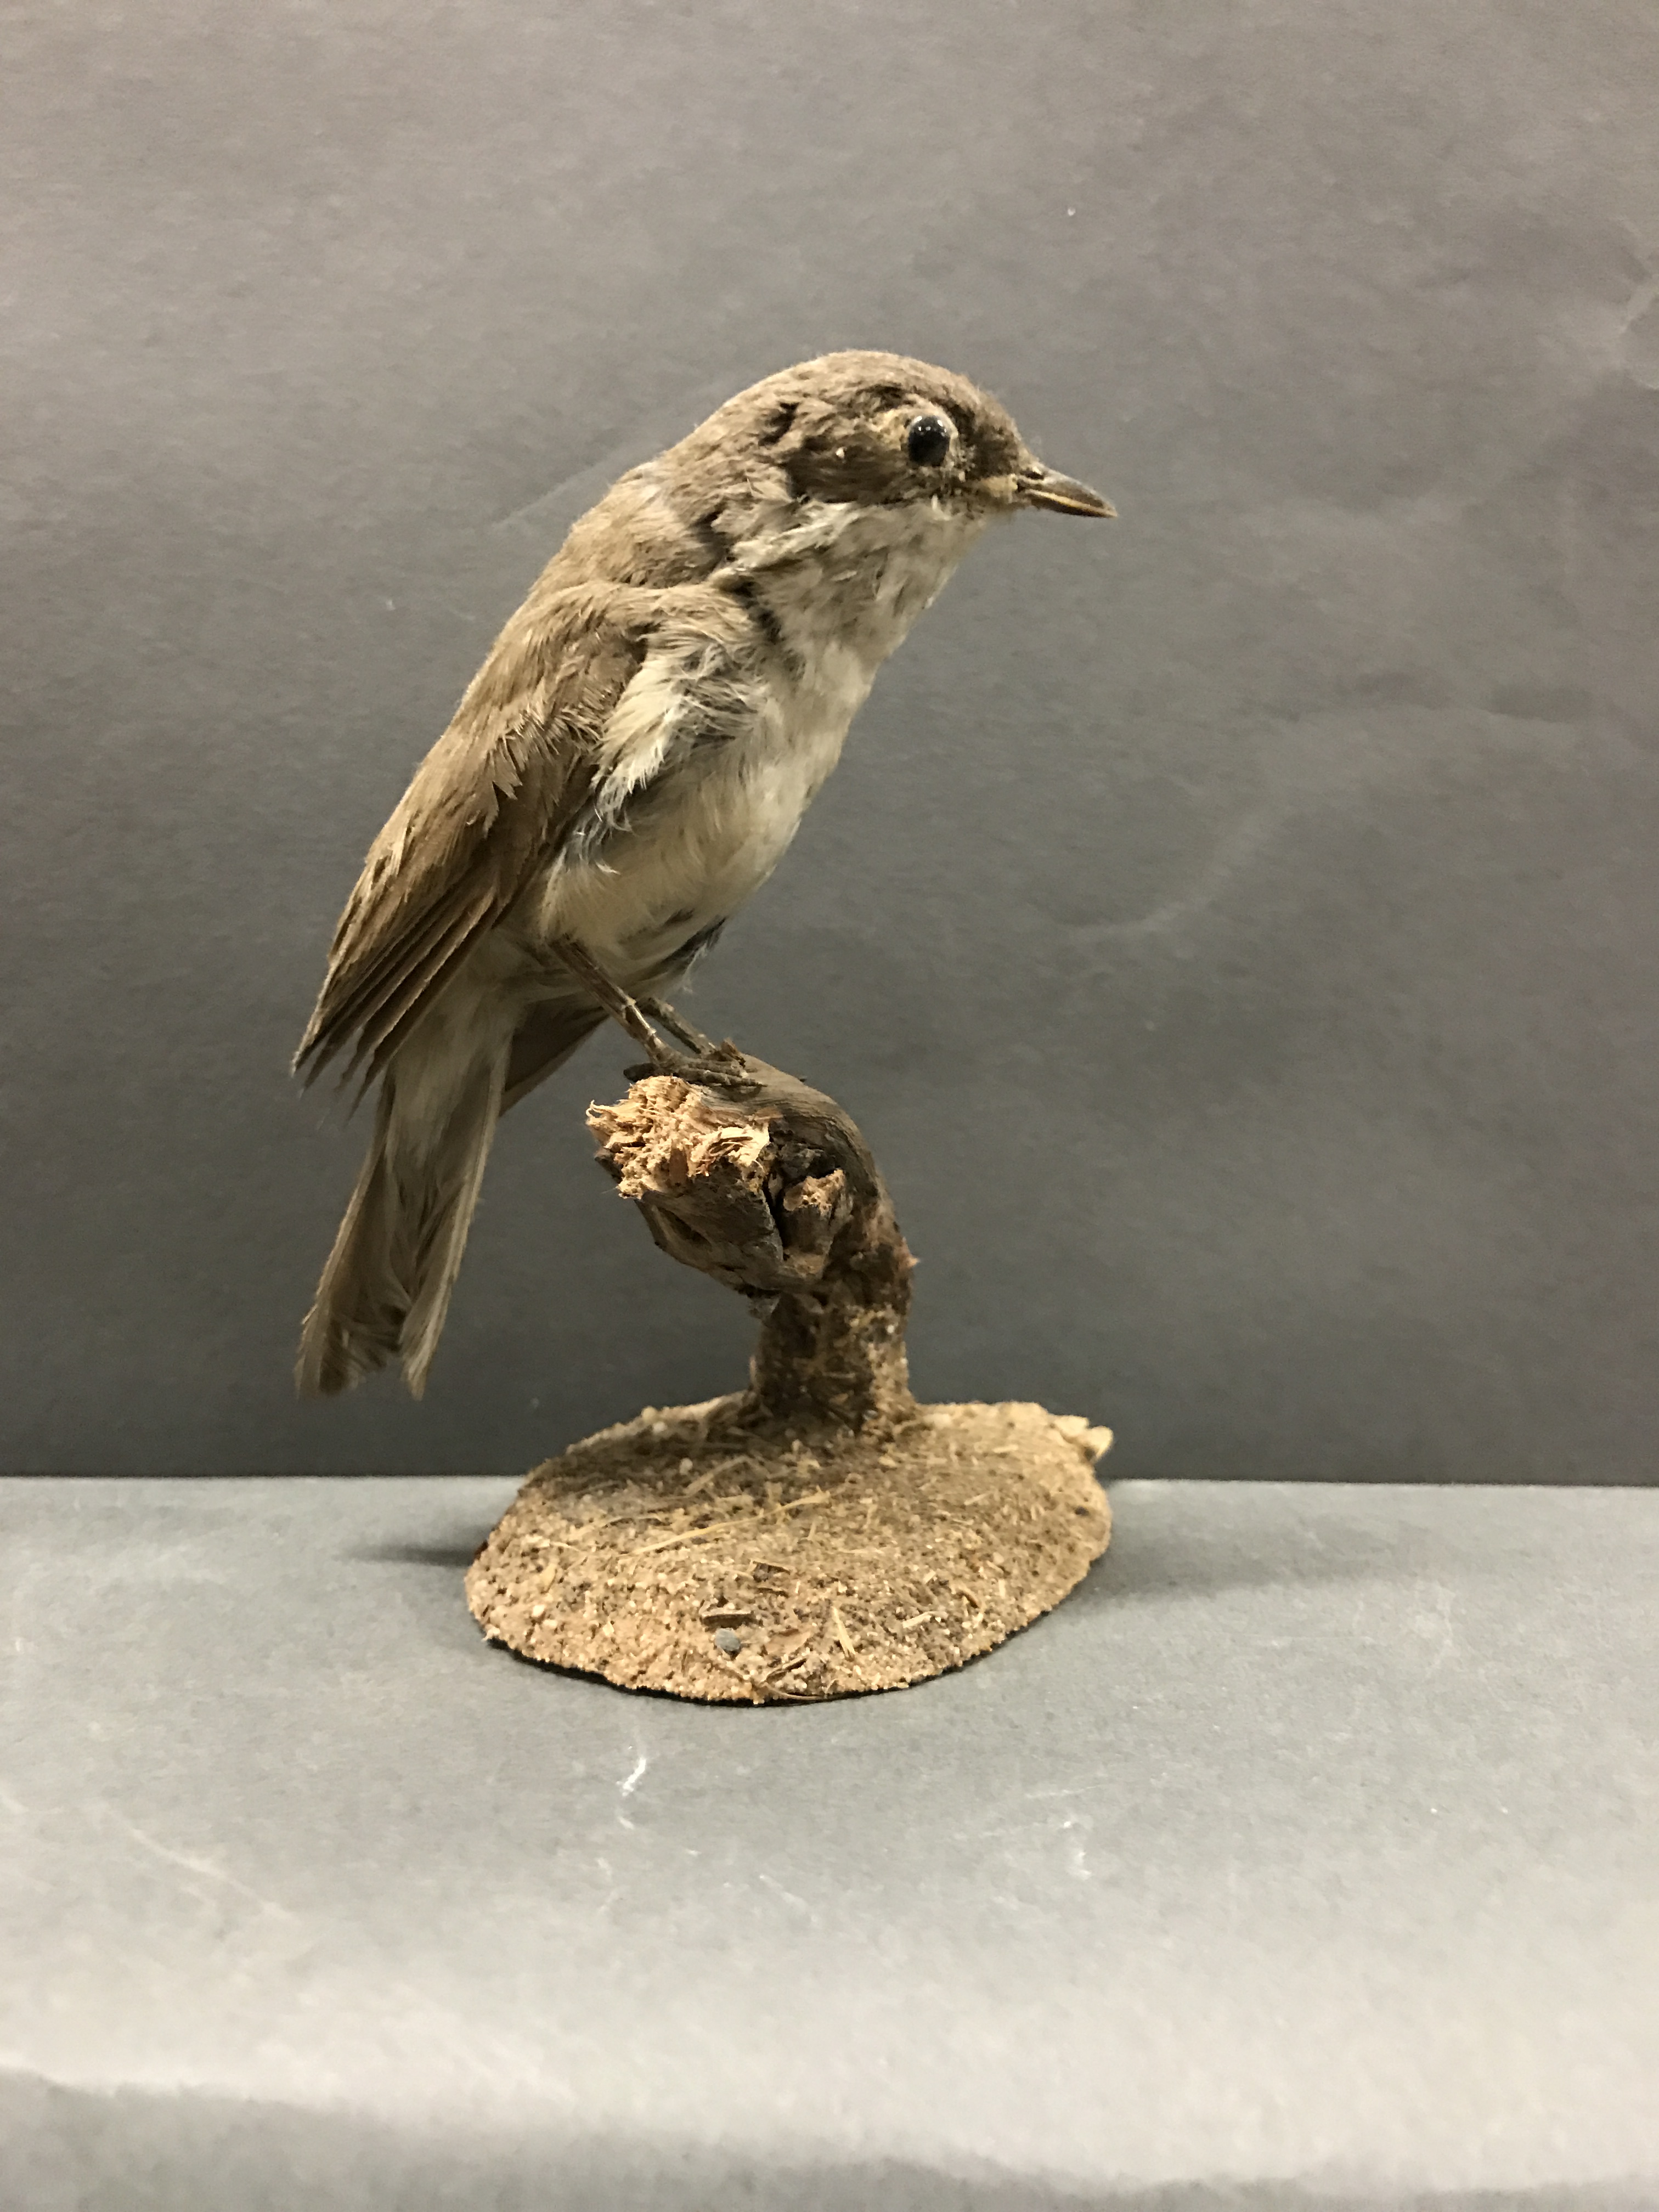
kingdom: Animalia
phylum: Chordata
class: Aves
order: Passeriformes
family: Sylviidae
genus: Sylvia
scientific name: Sylvia curruca
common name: Lesser whitethroat
